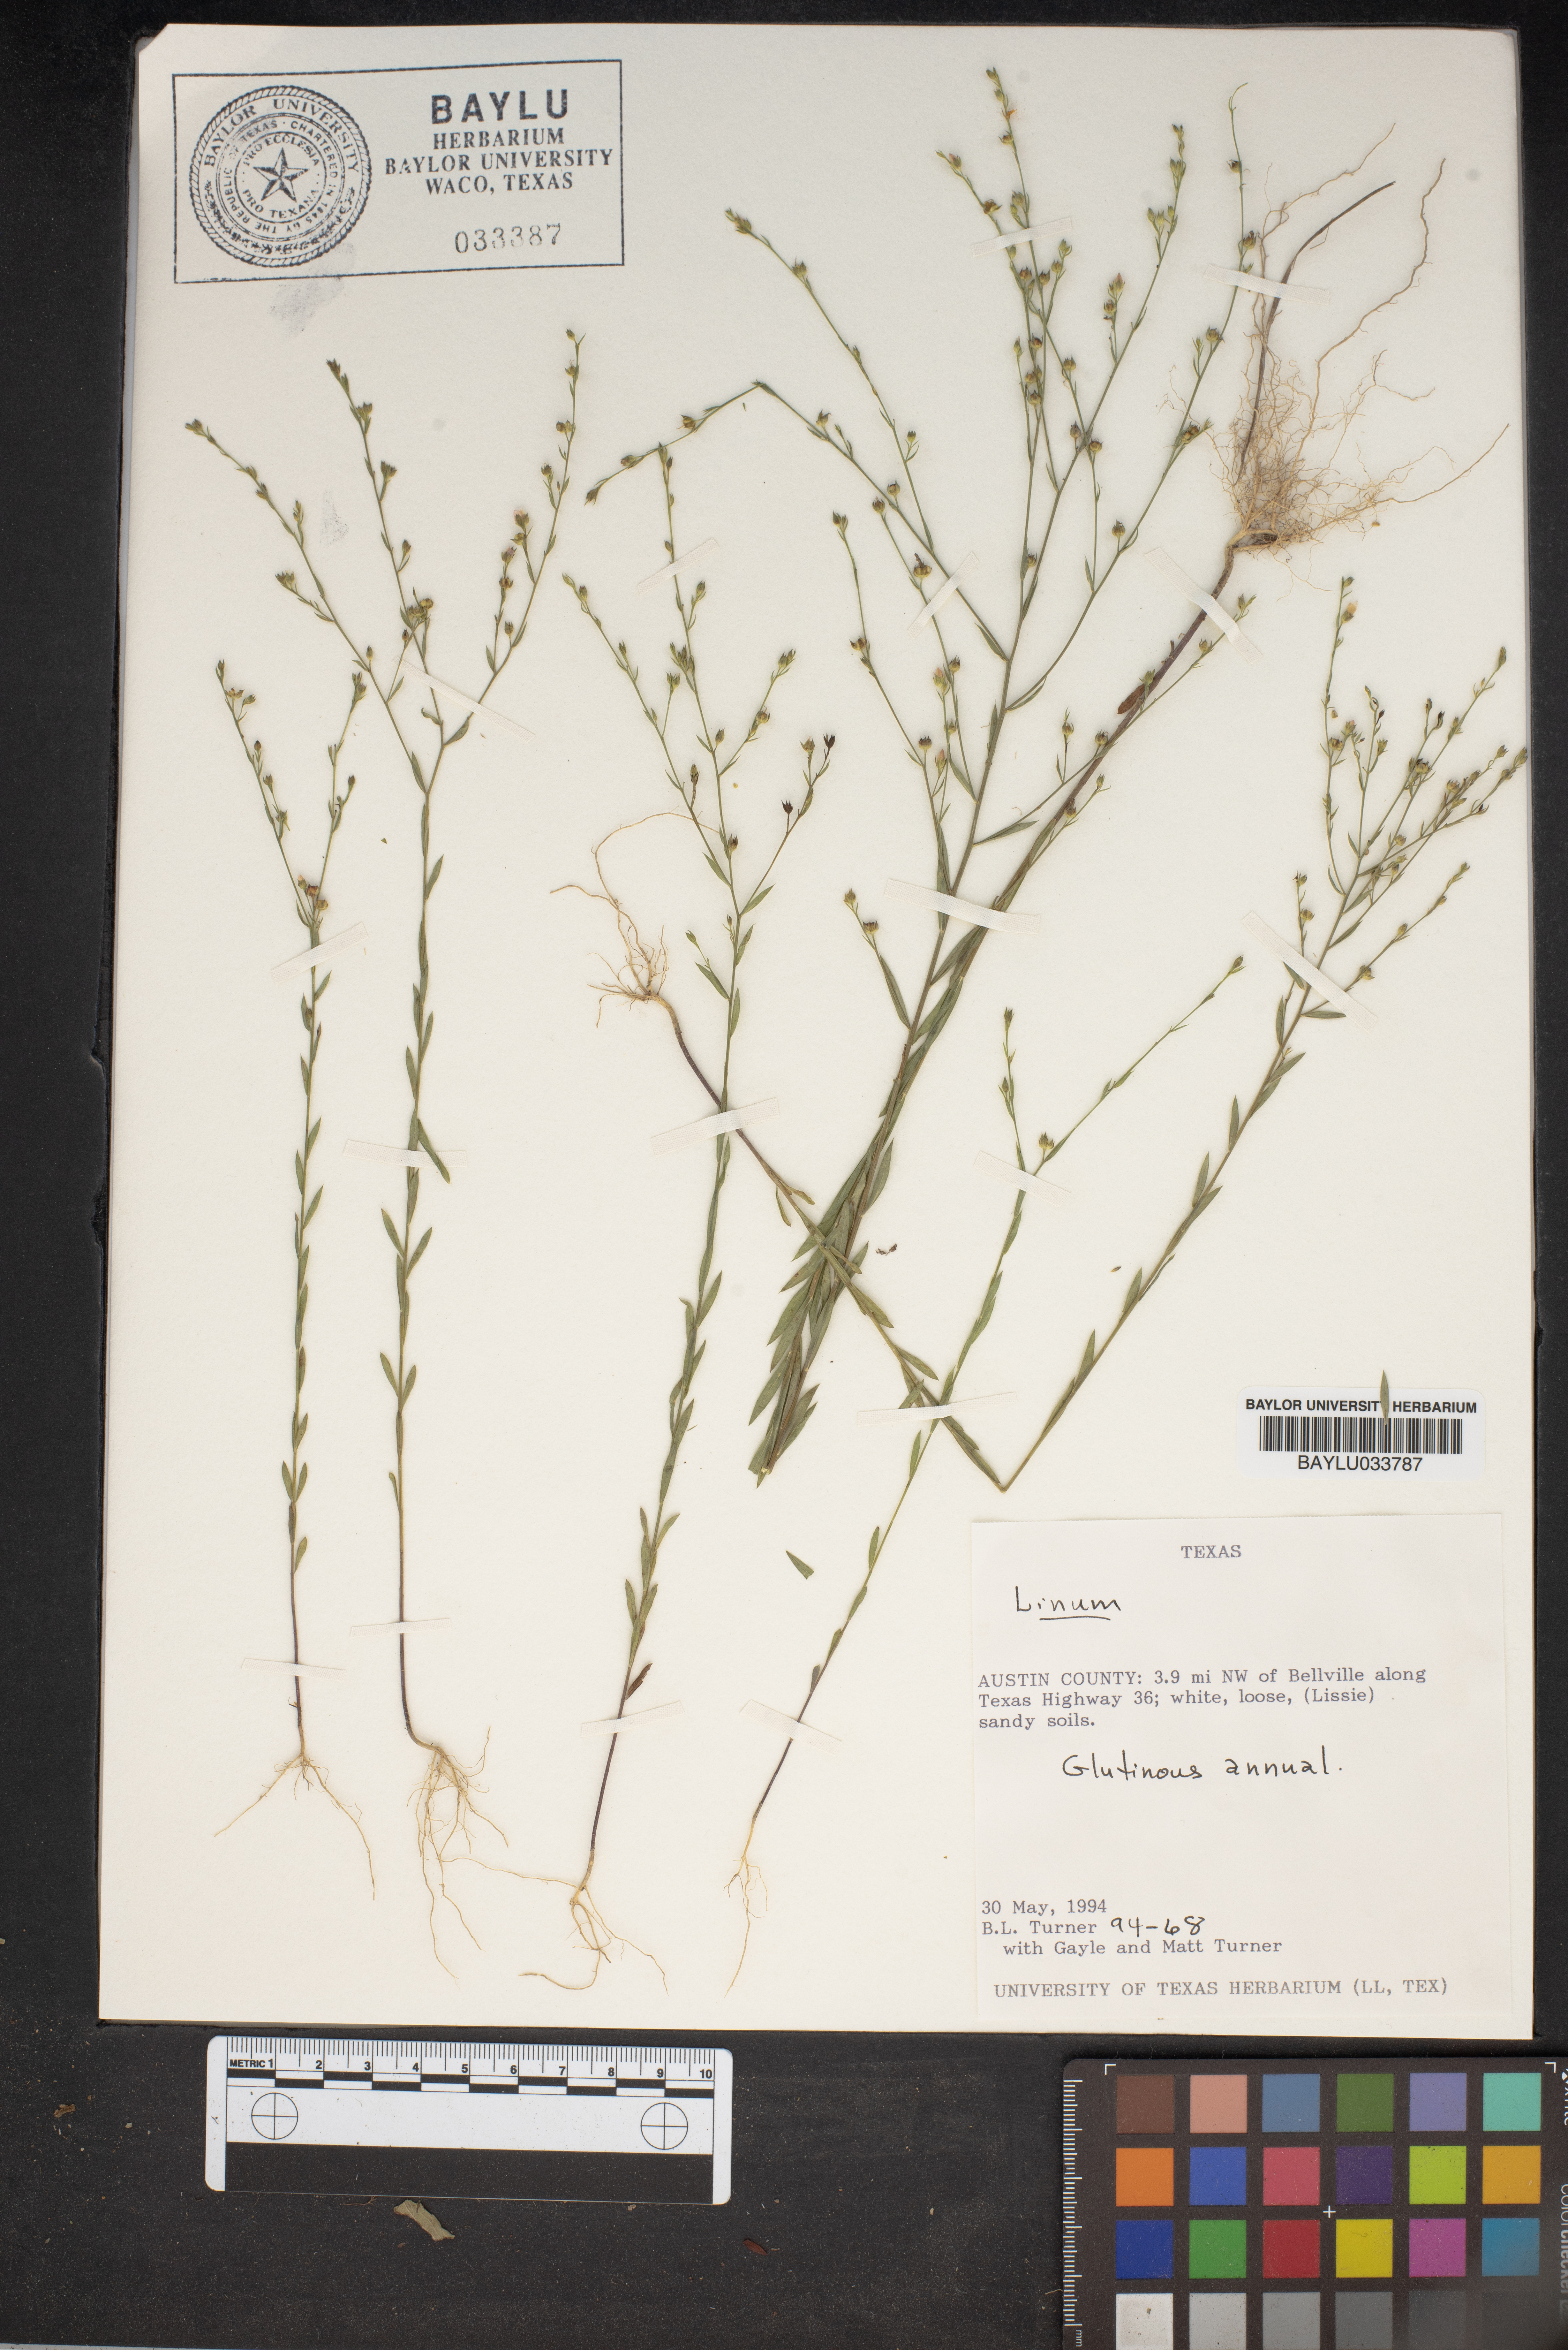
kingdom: Plantae
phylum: Tracheophyta
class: Magnoliopsida
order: Malpighiales
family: Linaceae
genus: Linum
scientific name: Linum
